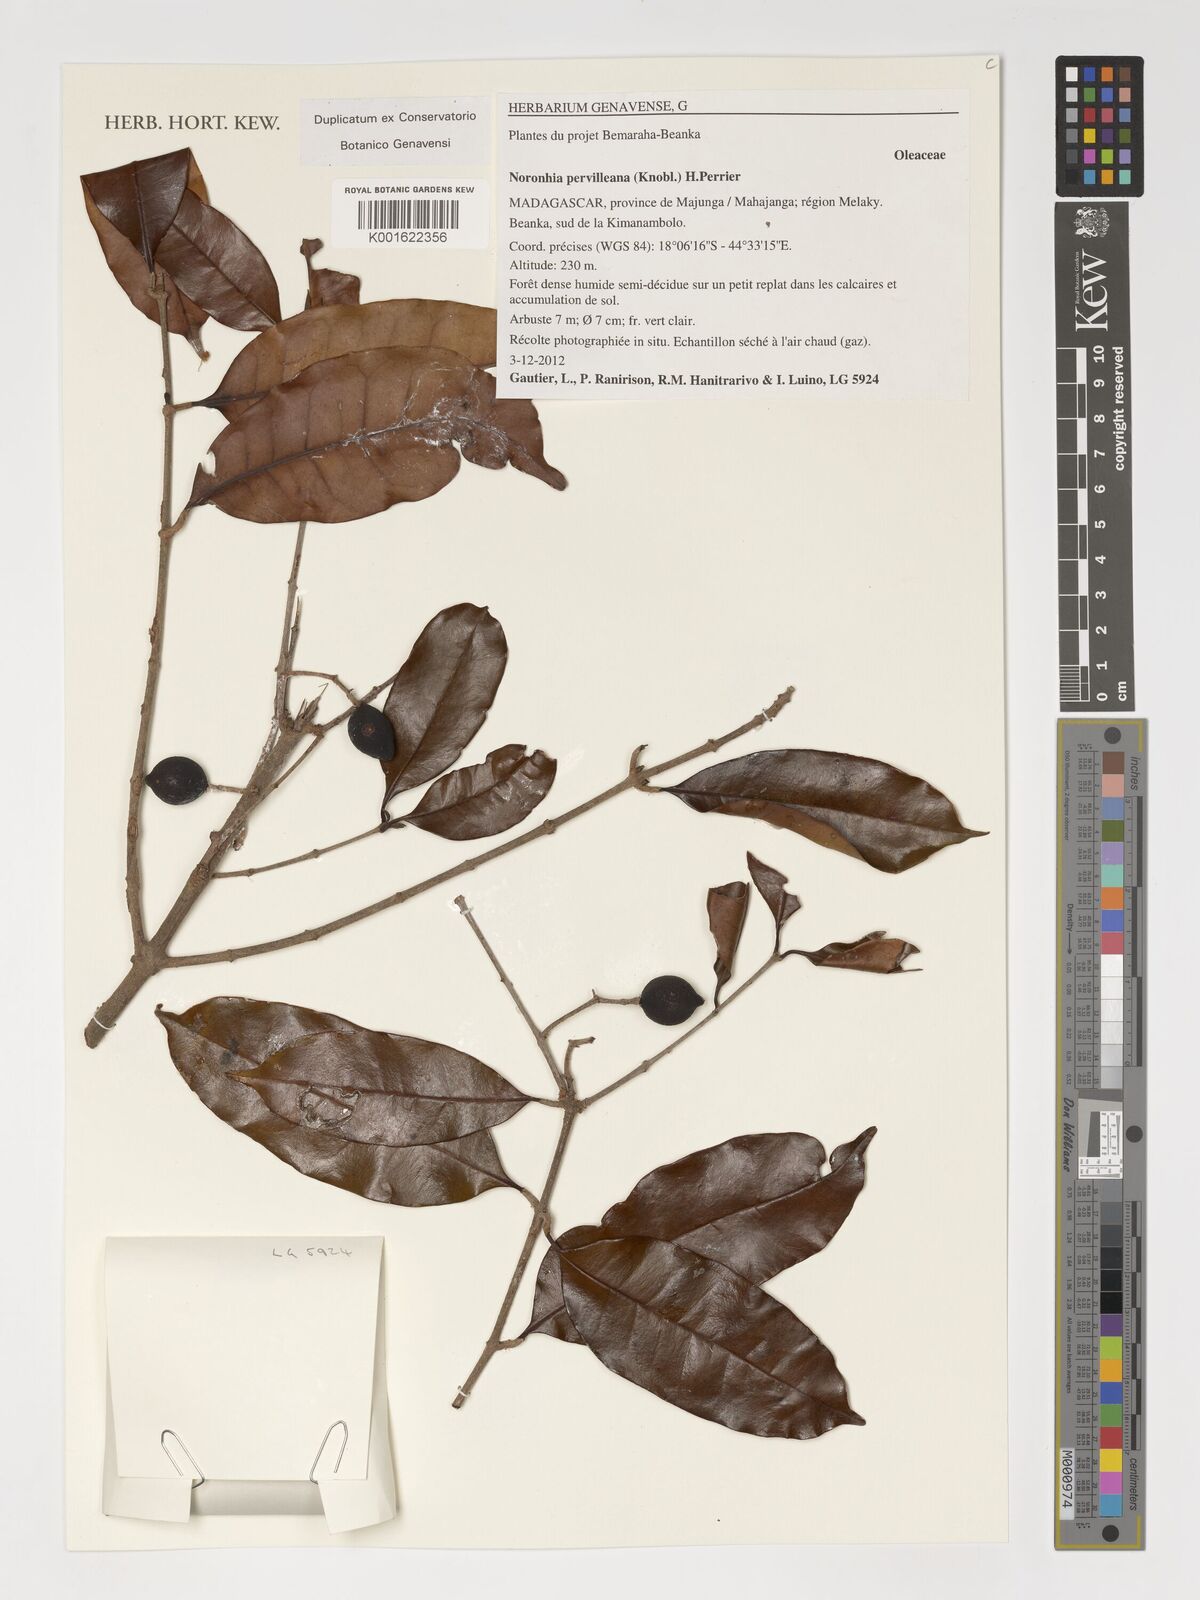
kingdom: Plantae
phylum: Tracheophyta
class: Magnoliopsida
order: Lamiales
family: Oleaceae
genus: Noronhia
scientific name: Noronhia pervilleana
